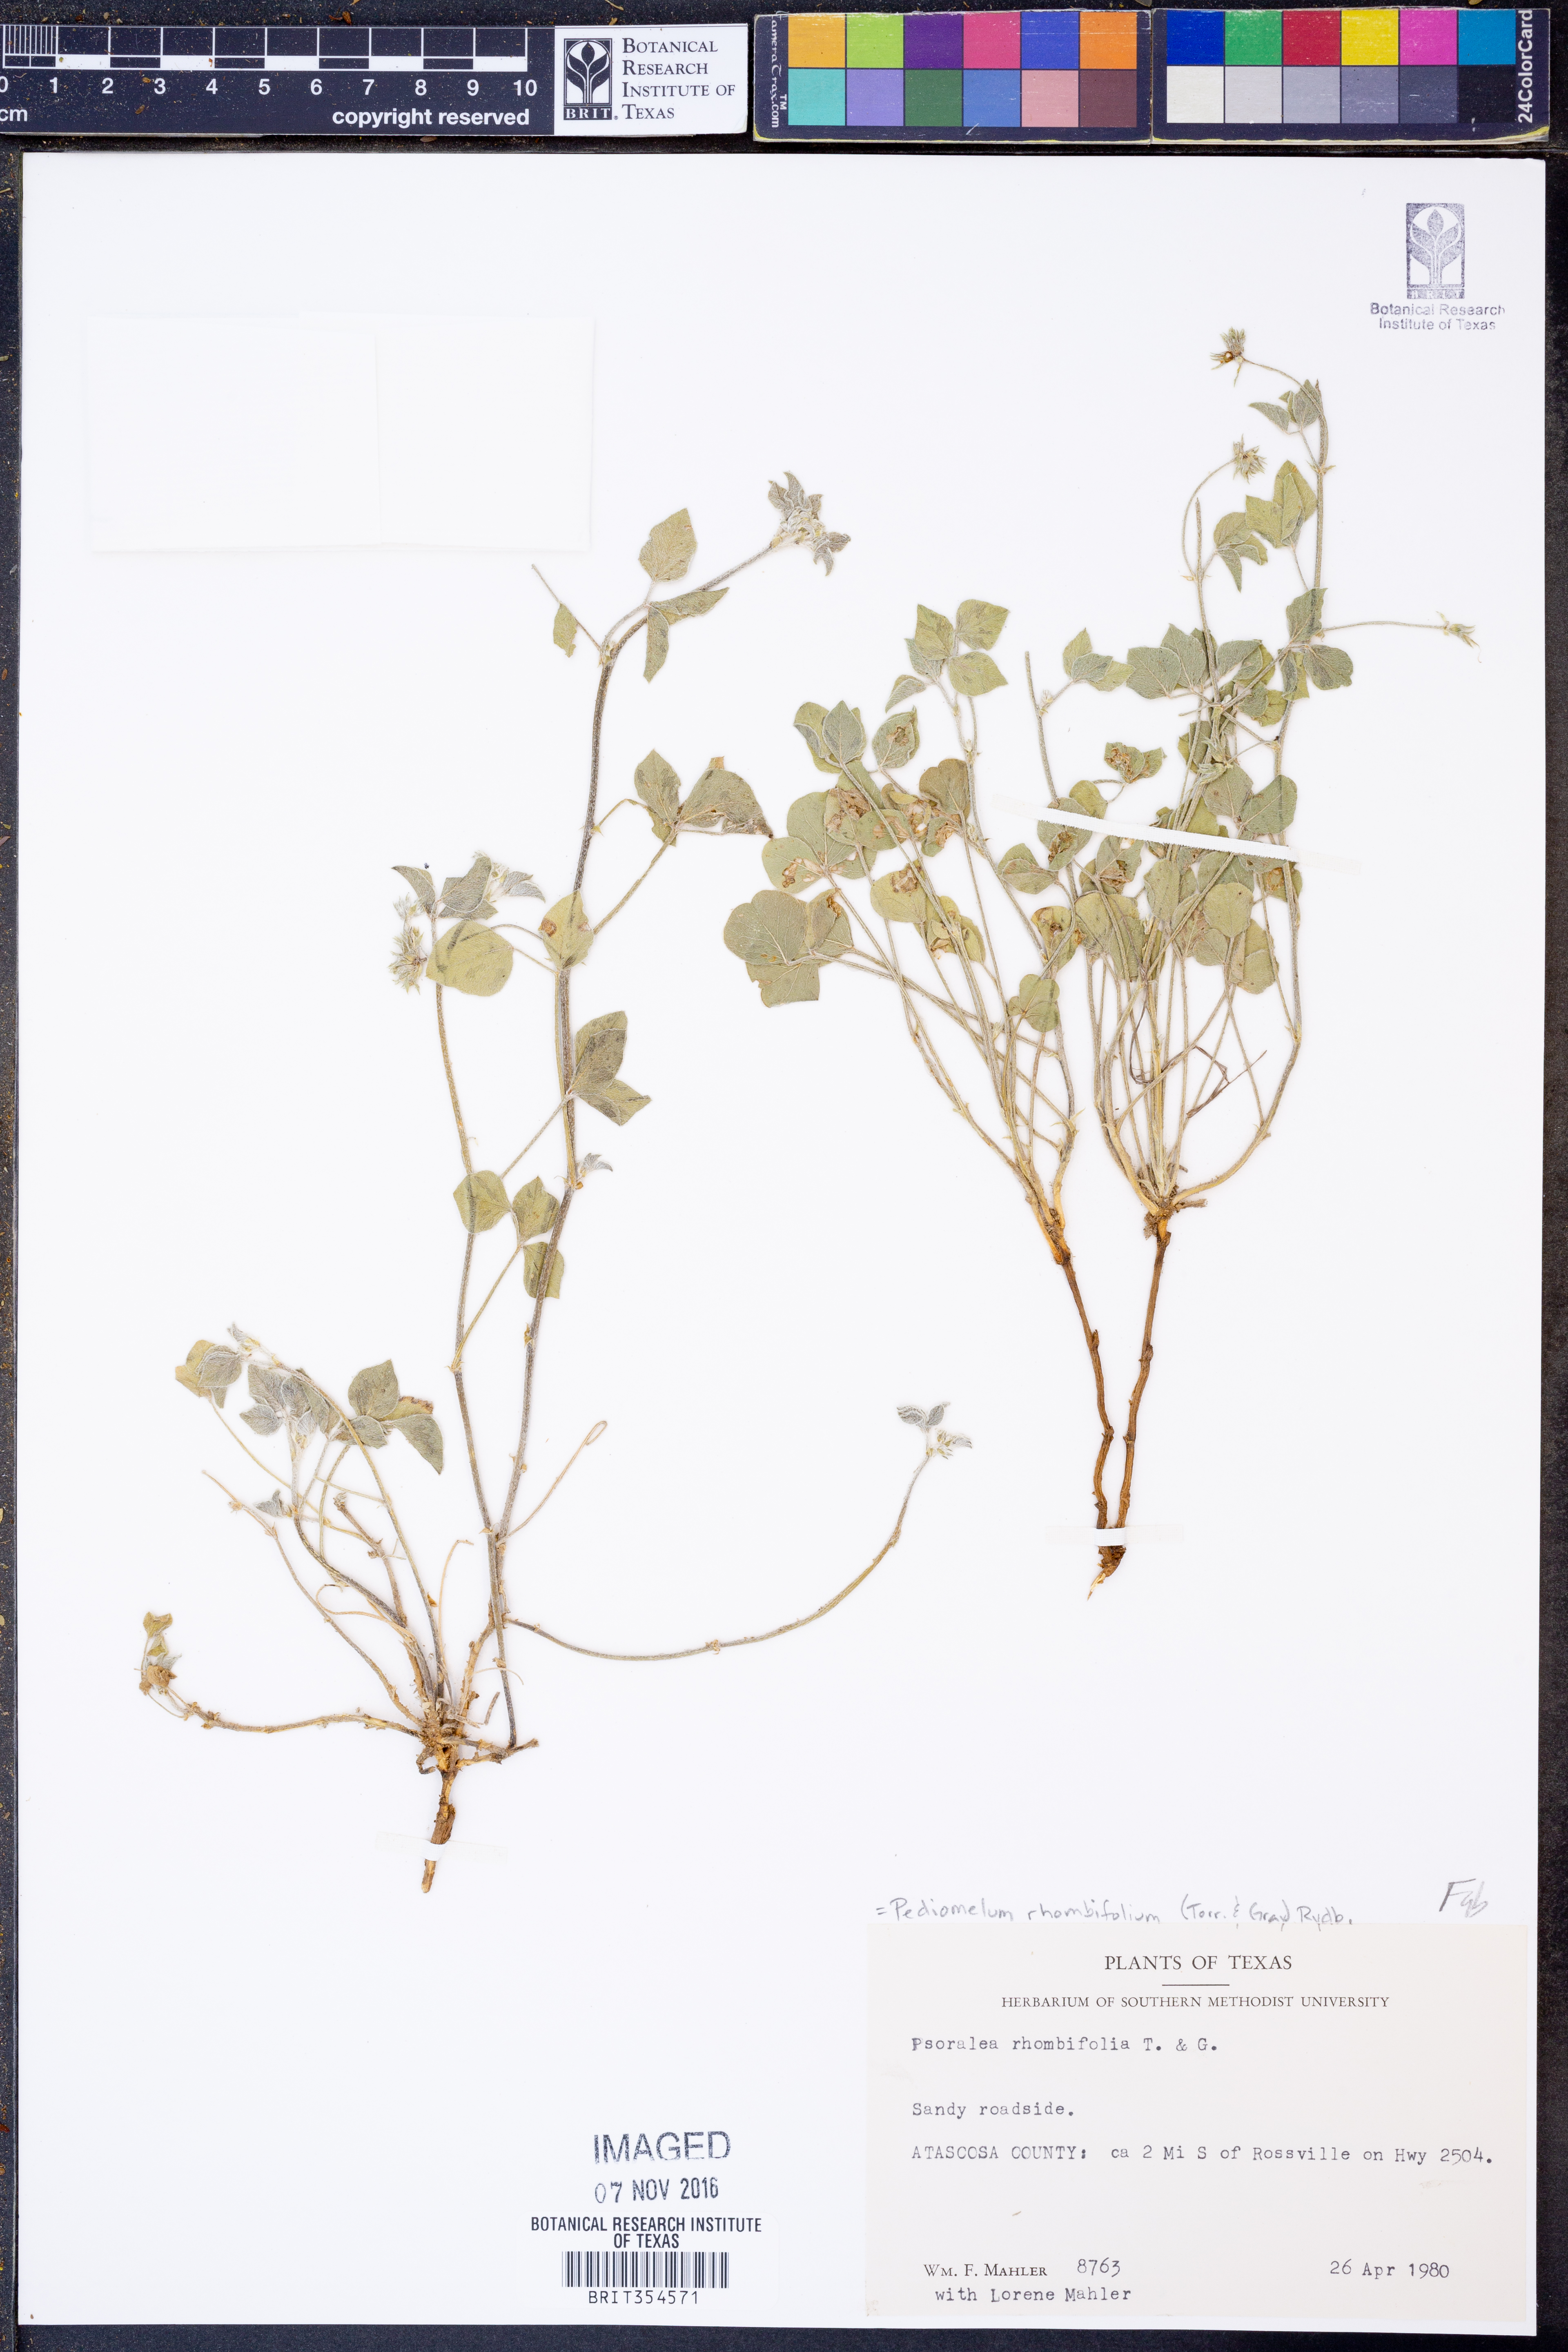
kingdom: Plantae
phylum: Tracheophyta
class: Magnoliopsida
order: Fabales
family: Fabaceae
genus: Pediomelum
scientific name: Pediomelum rhombifolium
